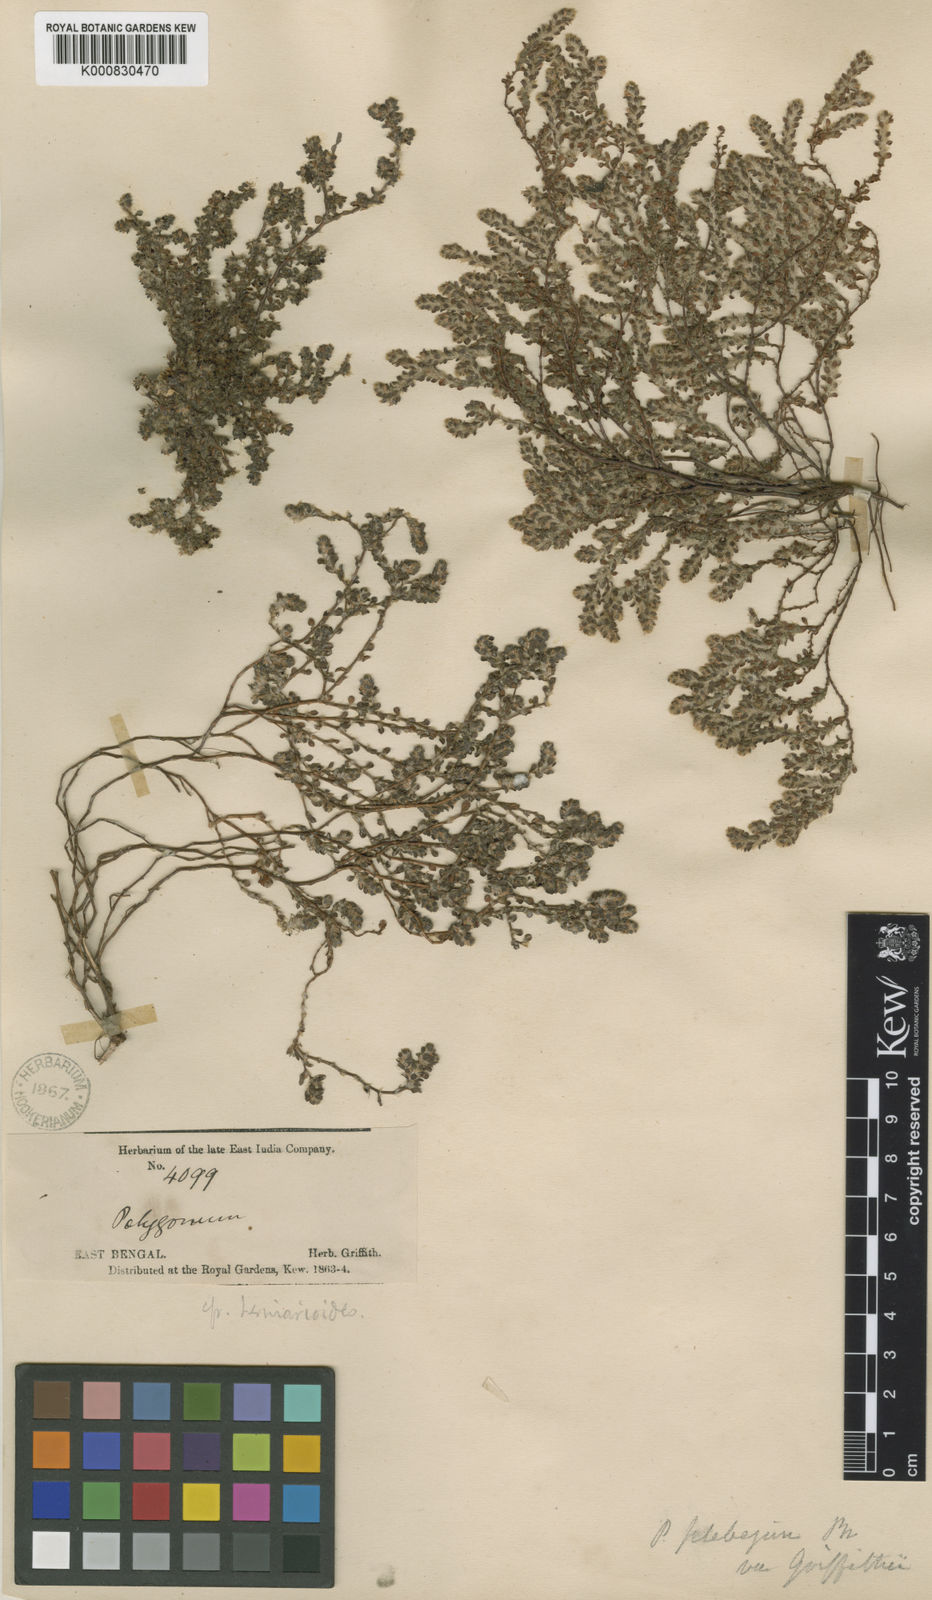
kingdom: Plantae
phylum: Tracheophyta
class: Magnoliopsida
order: Caryophyllales
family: Polygonaceae
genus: Polygonum
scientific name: Polygonum plebeium
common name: Common knotweed
